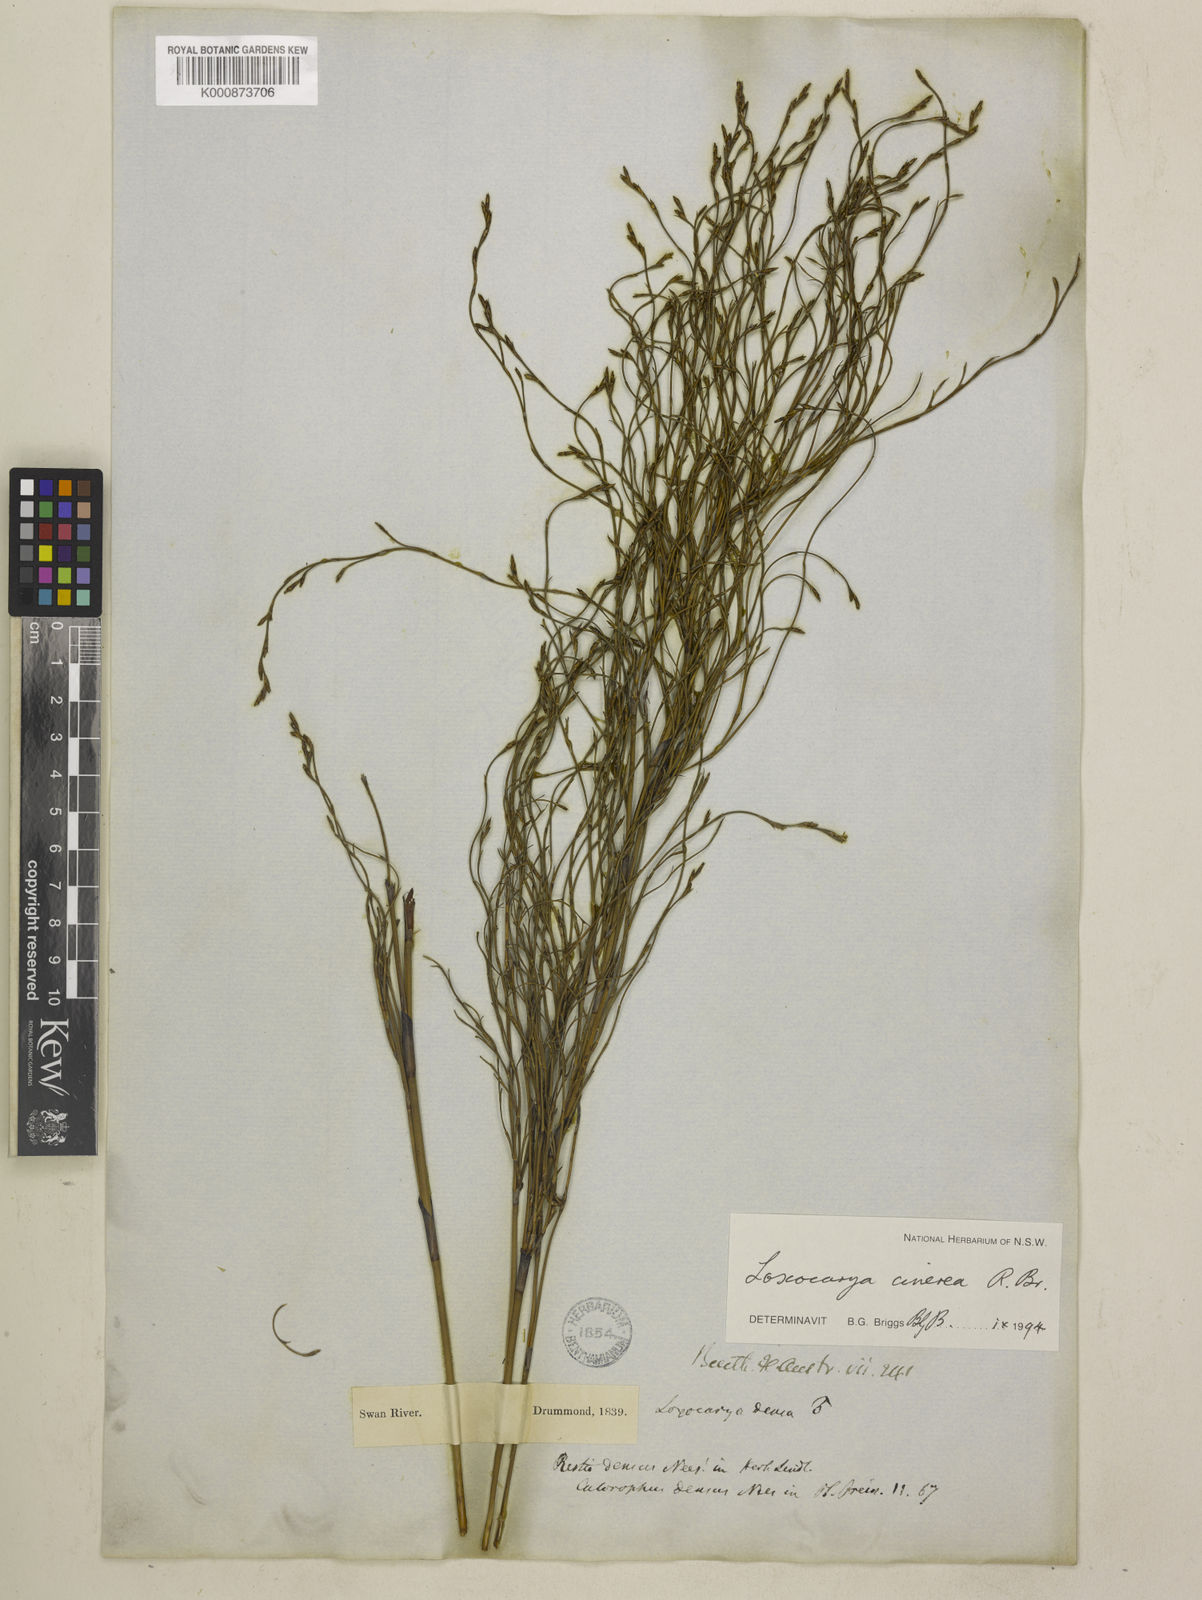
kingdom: Plantae
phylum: Tracheophyta
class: Liliopsida
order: Poales
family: Restionaceae
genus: Loxocarya
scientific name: Loxocarya cinerea
